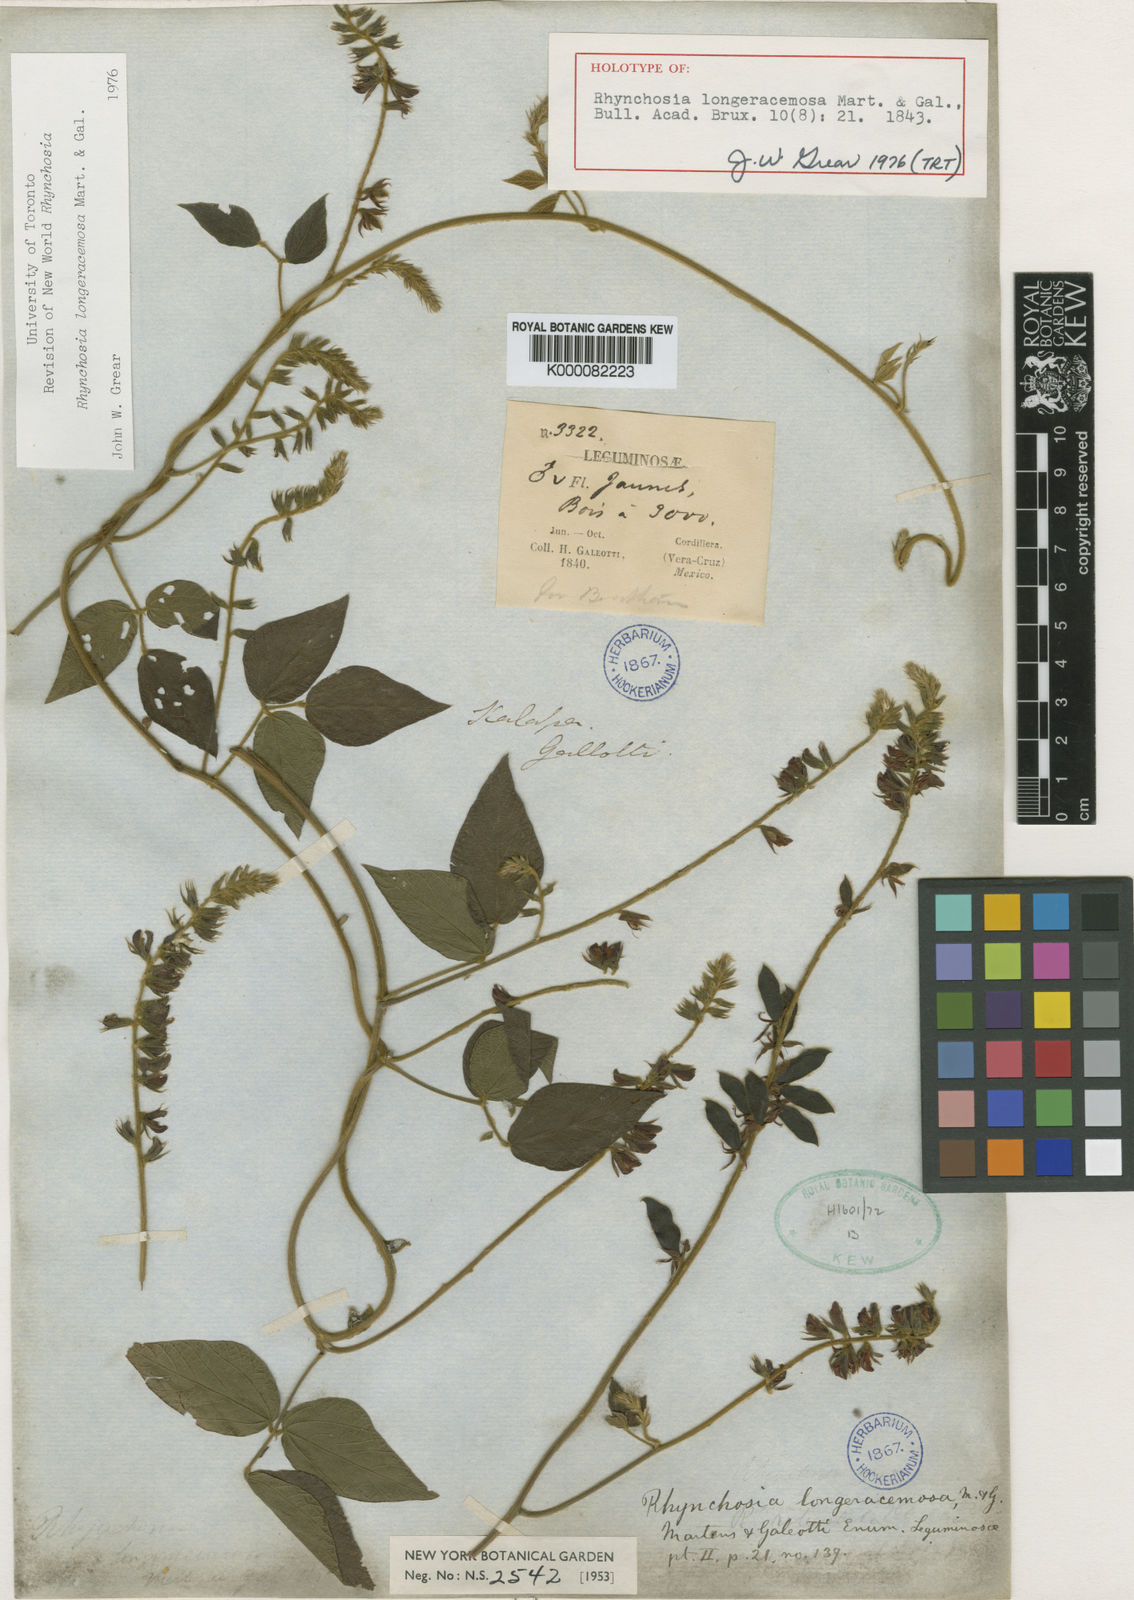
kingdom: Plantae
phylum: Tracheophyta
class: Magnoliopsida
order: Fabales
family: Fabaceae
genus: Rhynchosia
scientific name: Rhynchosia longeracemosa
